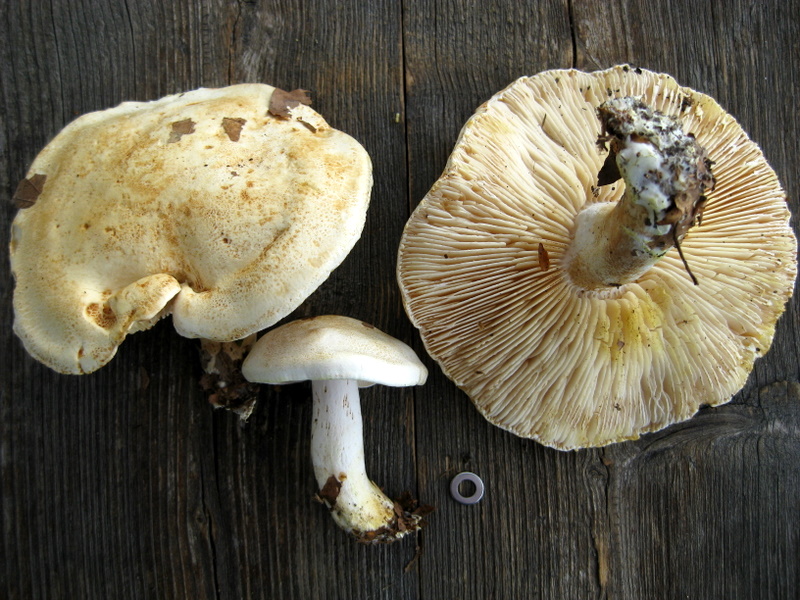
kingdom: Fungi
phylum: Basidiomycota
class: Agaricomycetes
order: Agaricales
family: Tricholomataceae
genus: Tricholoma
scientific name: Tricholoma sulphurescens
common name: svovlplettet ridderhat
